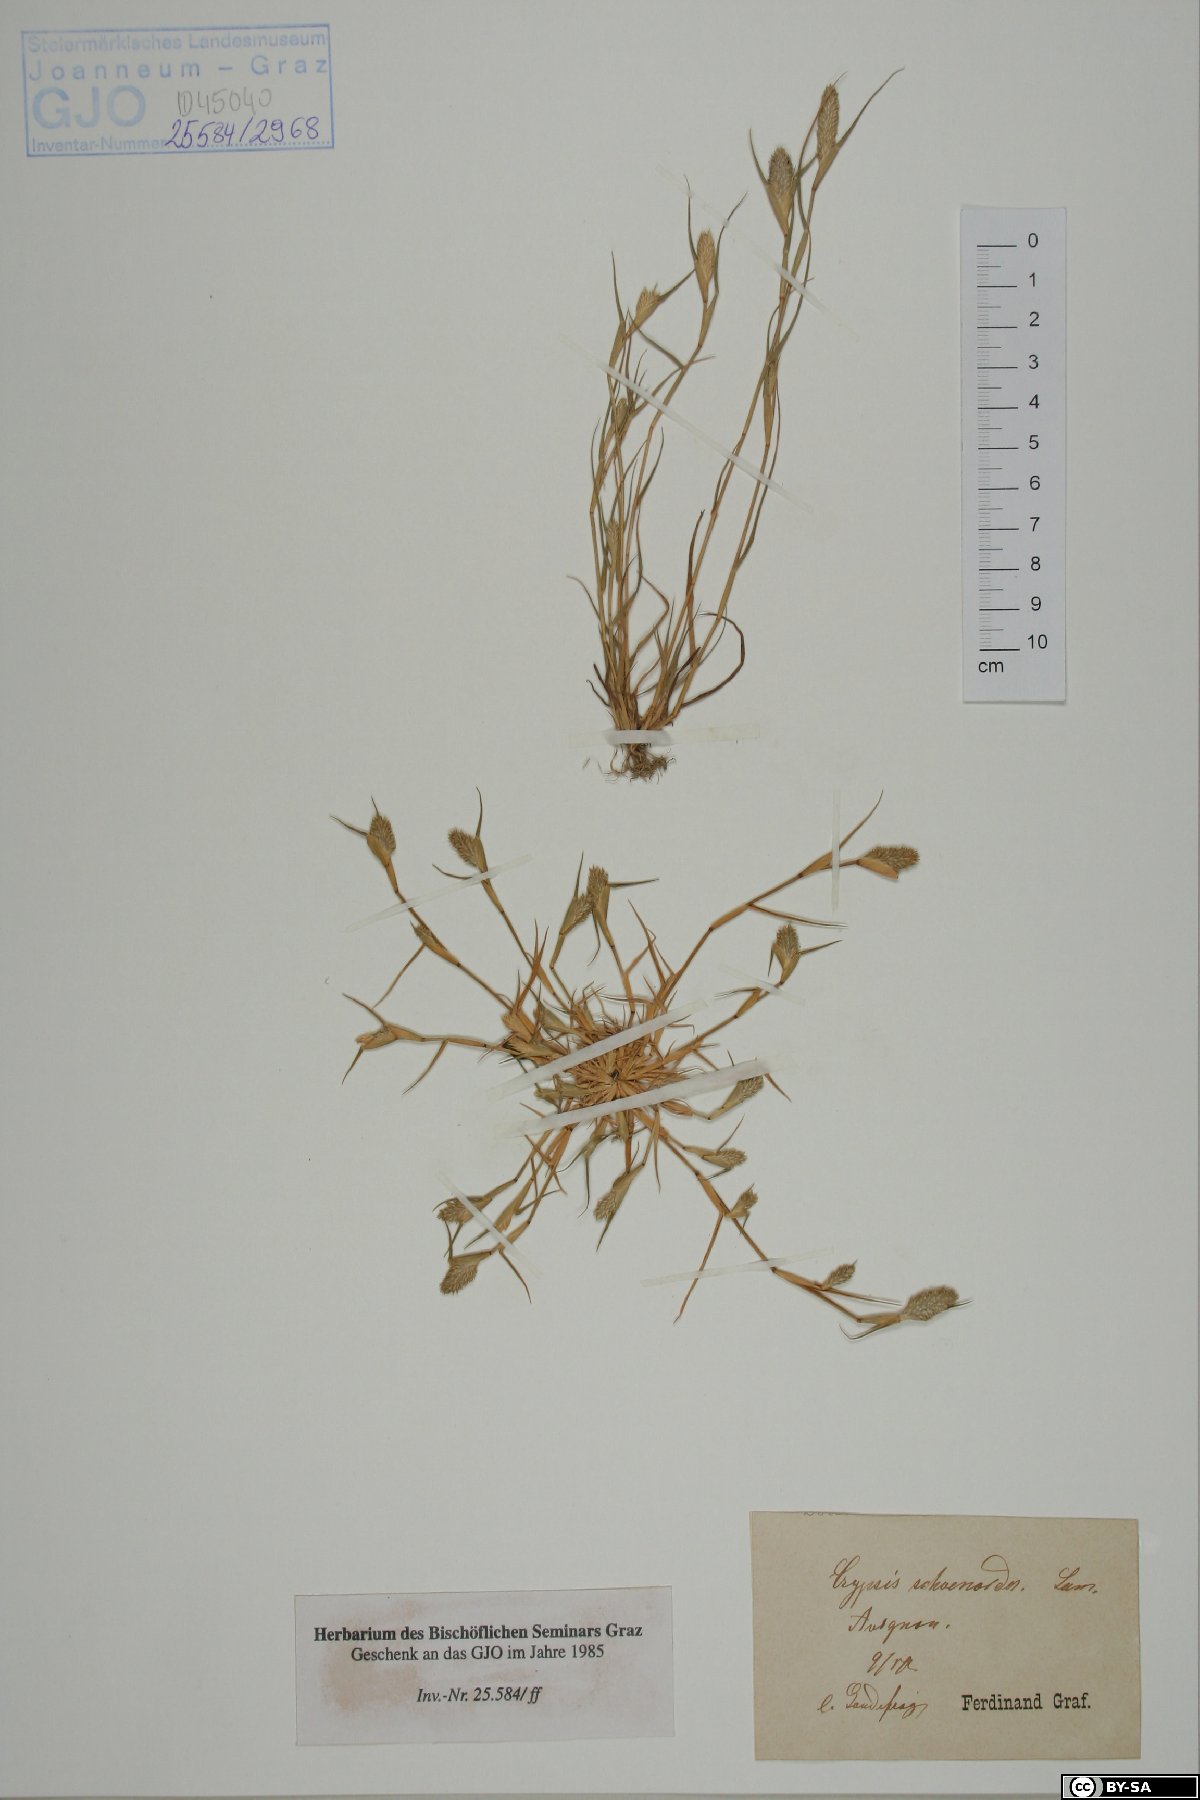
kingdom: Plantae
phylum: Tracheophyta
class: Liliopsida
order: Poales
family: Poaceae
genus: Sporobolus
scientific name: Sporobolus schoenoides
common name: Rush-like timothy
